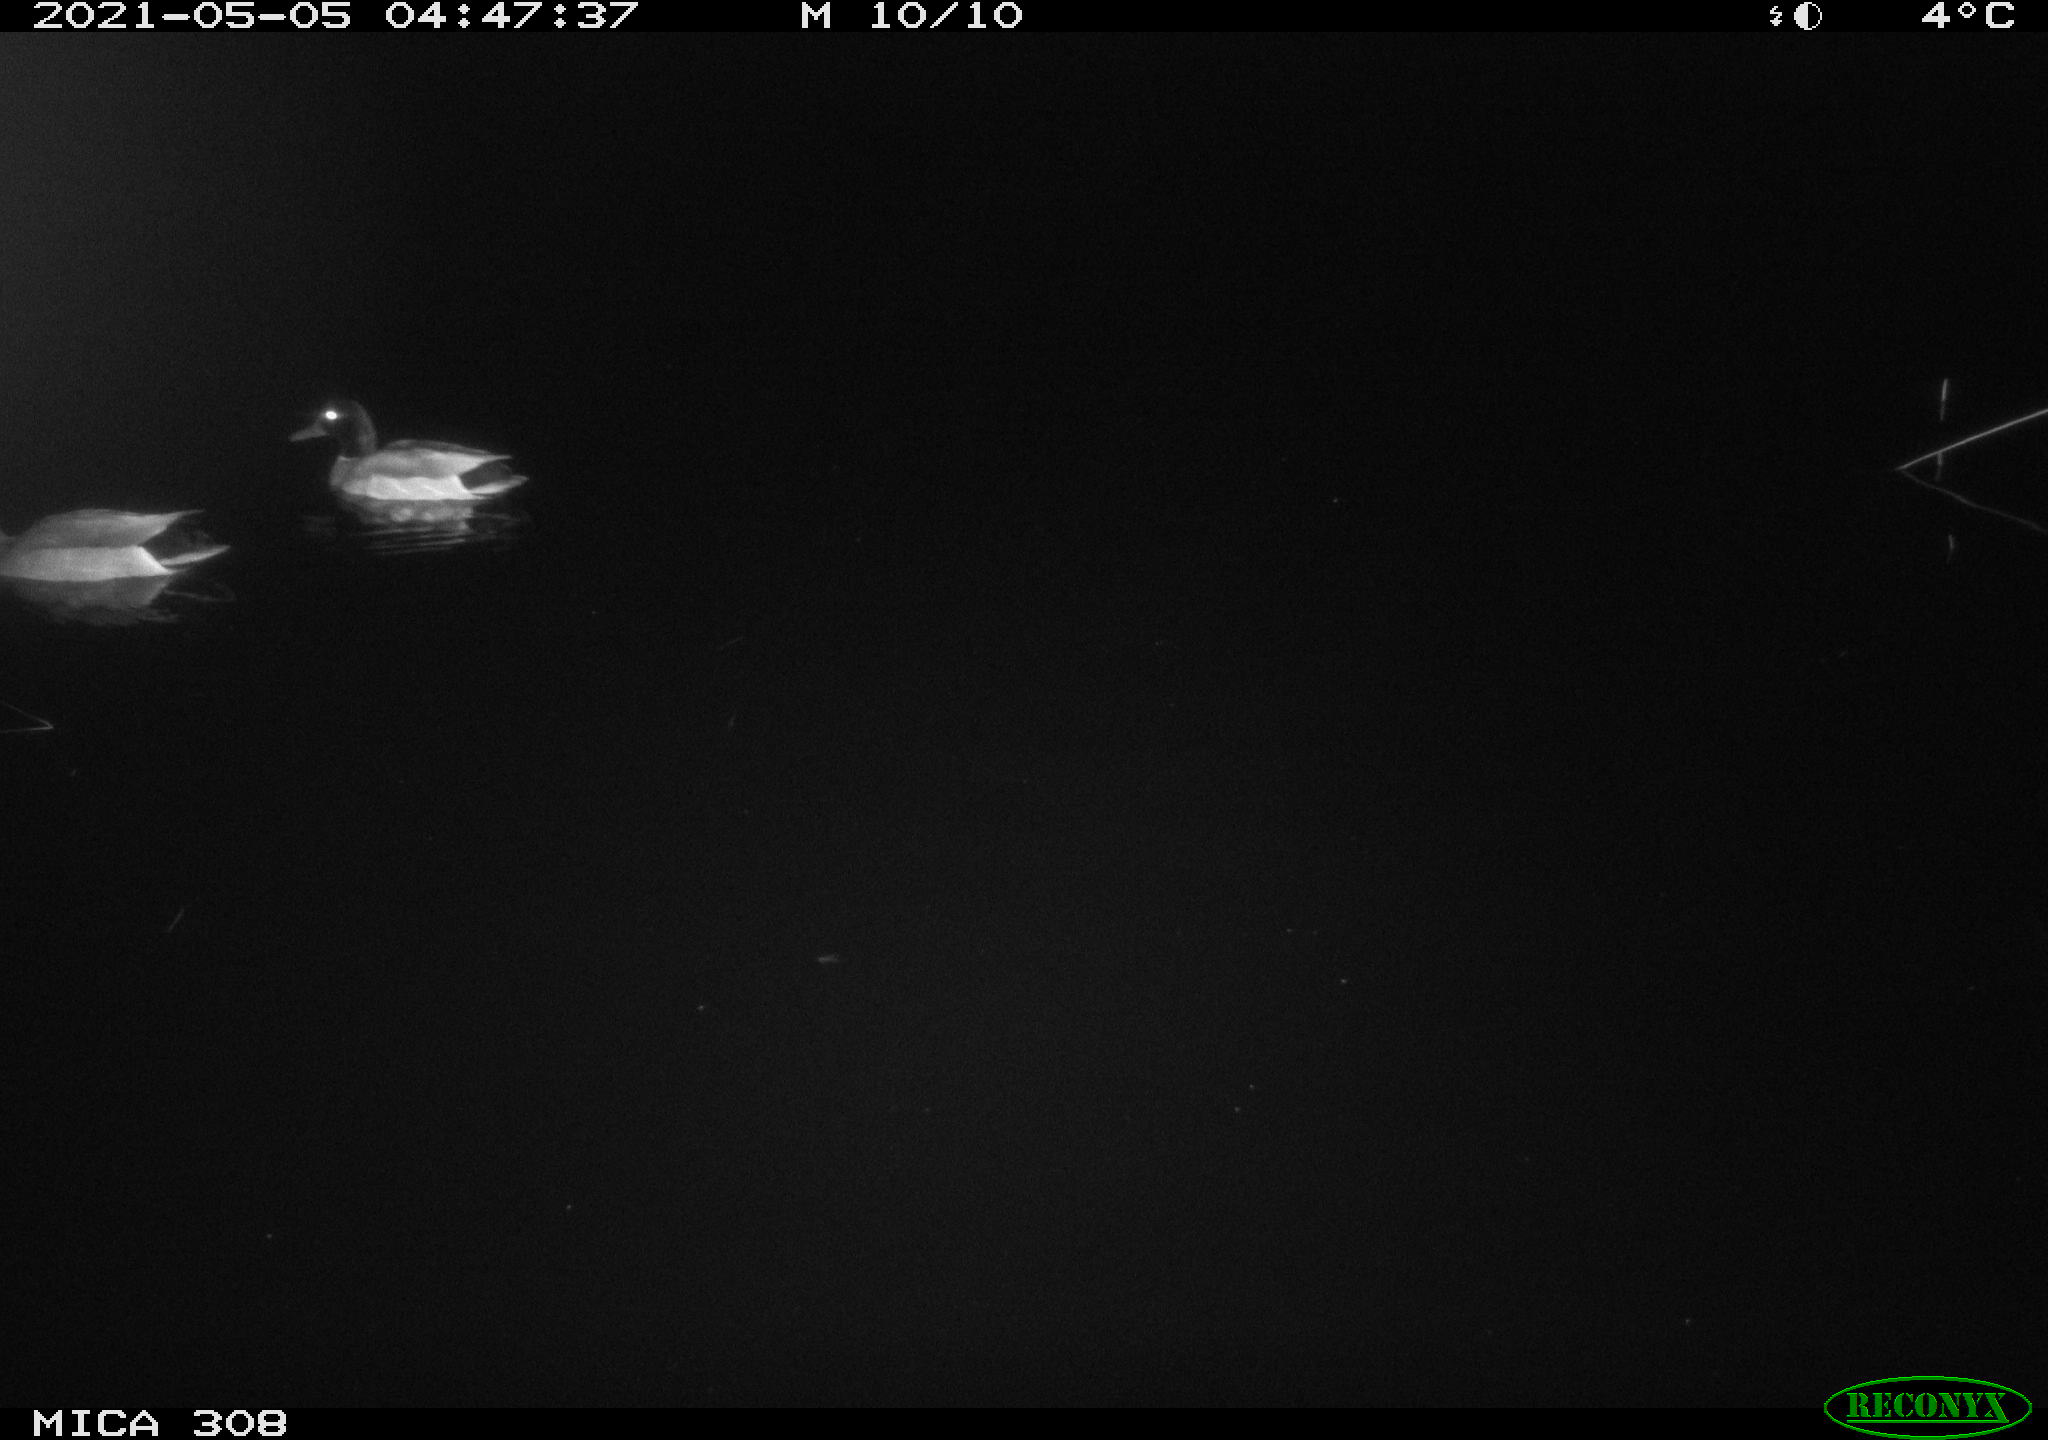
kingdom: Animalia
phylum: Chordata
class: Aves
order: Anseriformes
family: Anatidae
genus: Anas
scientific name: Anas platyrhynchos
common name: Mallard
